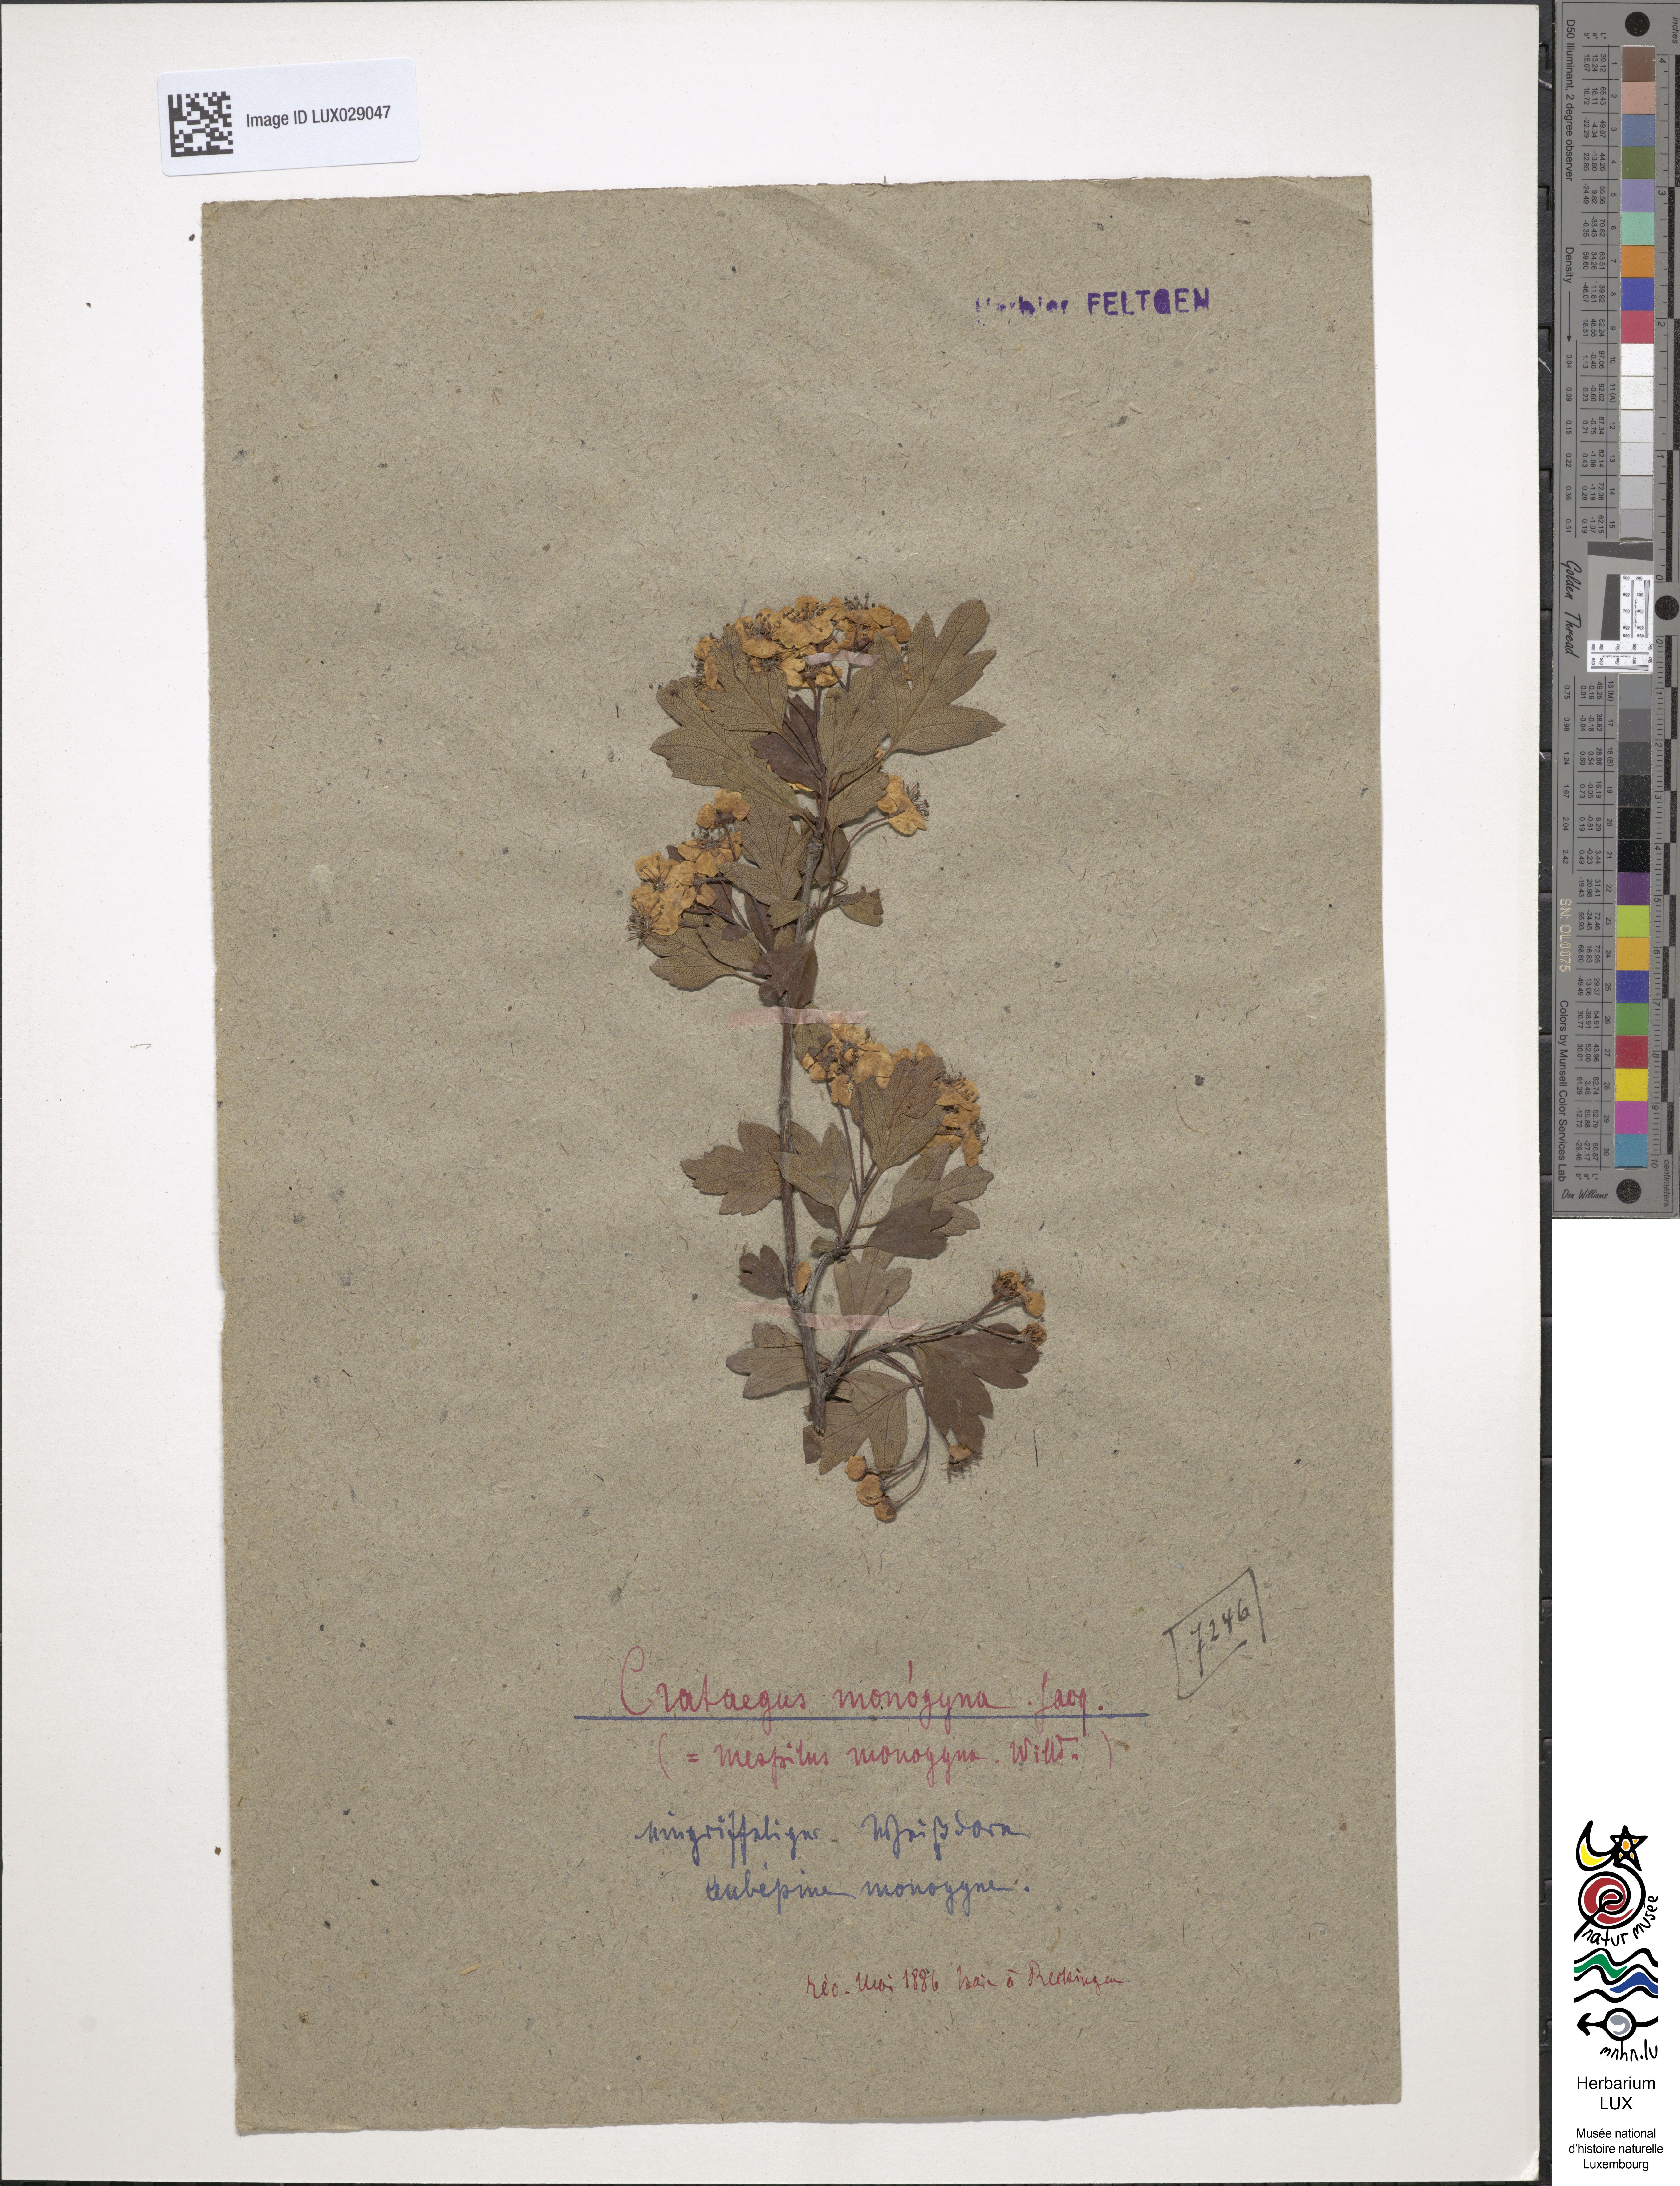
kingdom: Plantae
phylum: Tracheophyta
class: Magnoliopsida
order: Rosales
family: Rosaceae
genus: Crataegus
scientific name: Crataegus monogyna
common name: Hawthorn
